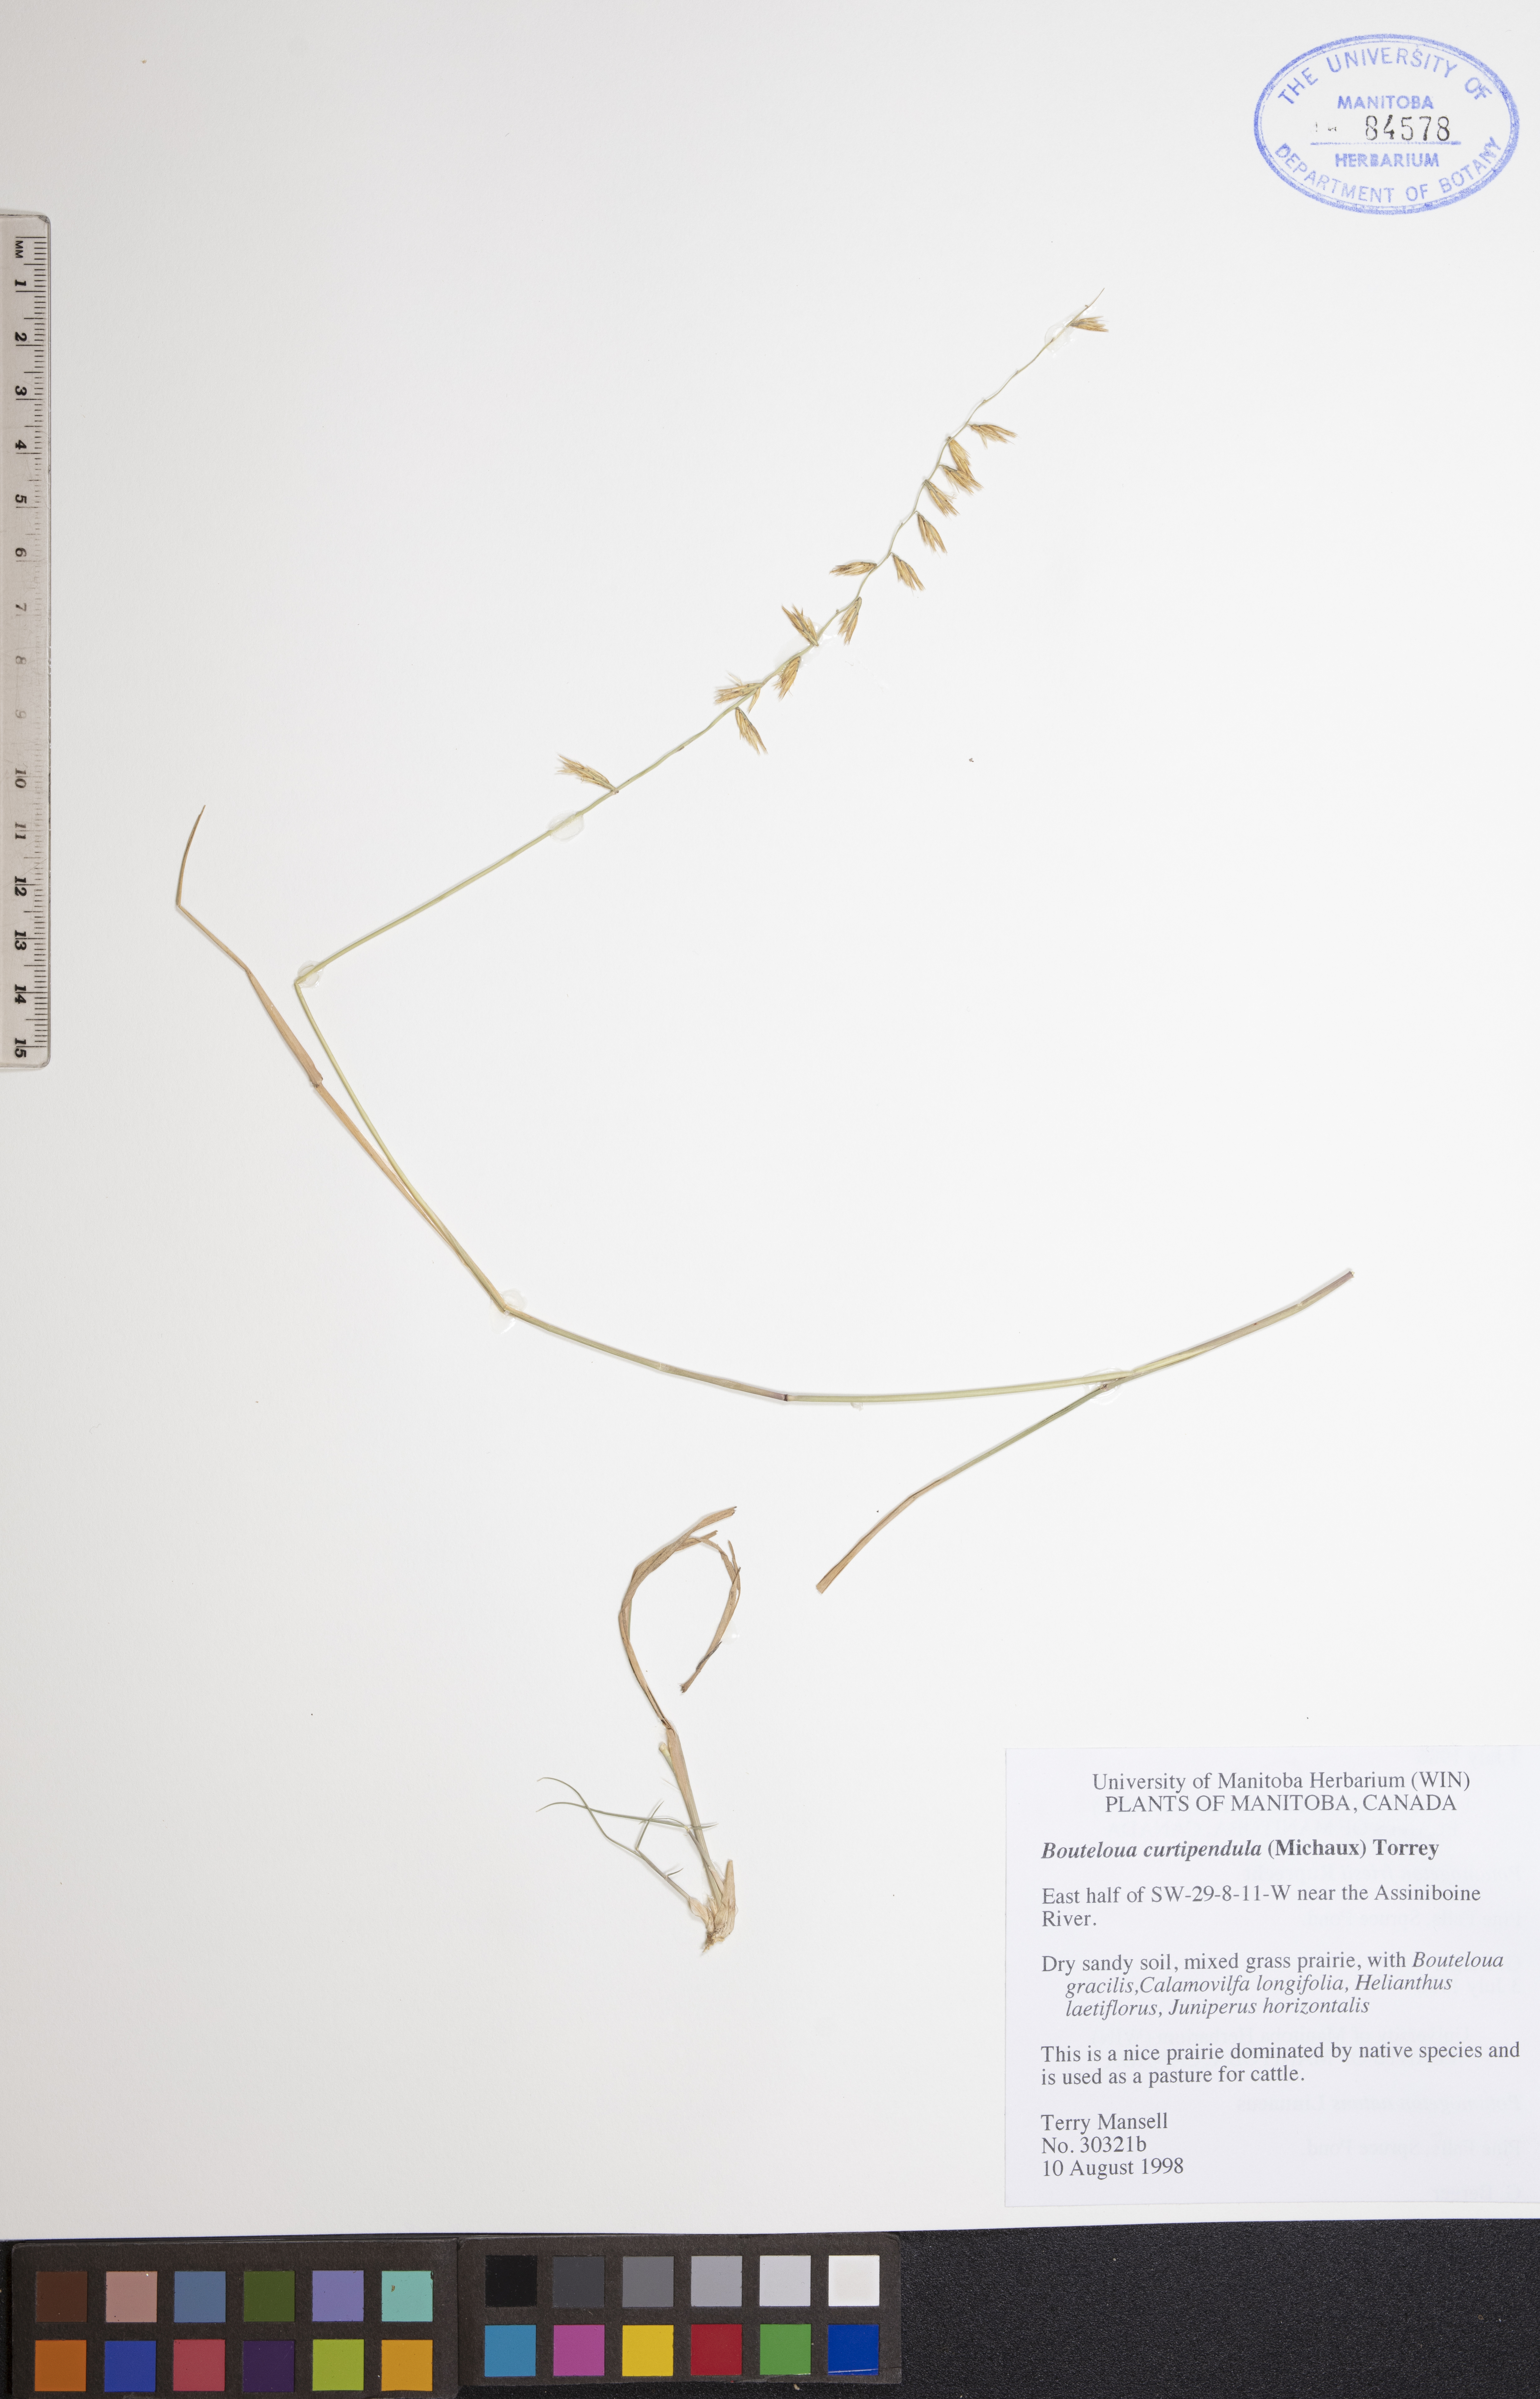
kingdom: Plantae
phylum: Tracheophyta
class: Liliopsida
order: Poales
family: Poaceae
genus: Bouteloua
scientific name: Bouteloua curtipendula
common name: Side-oats grama
